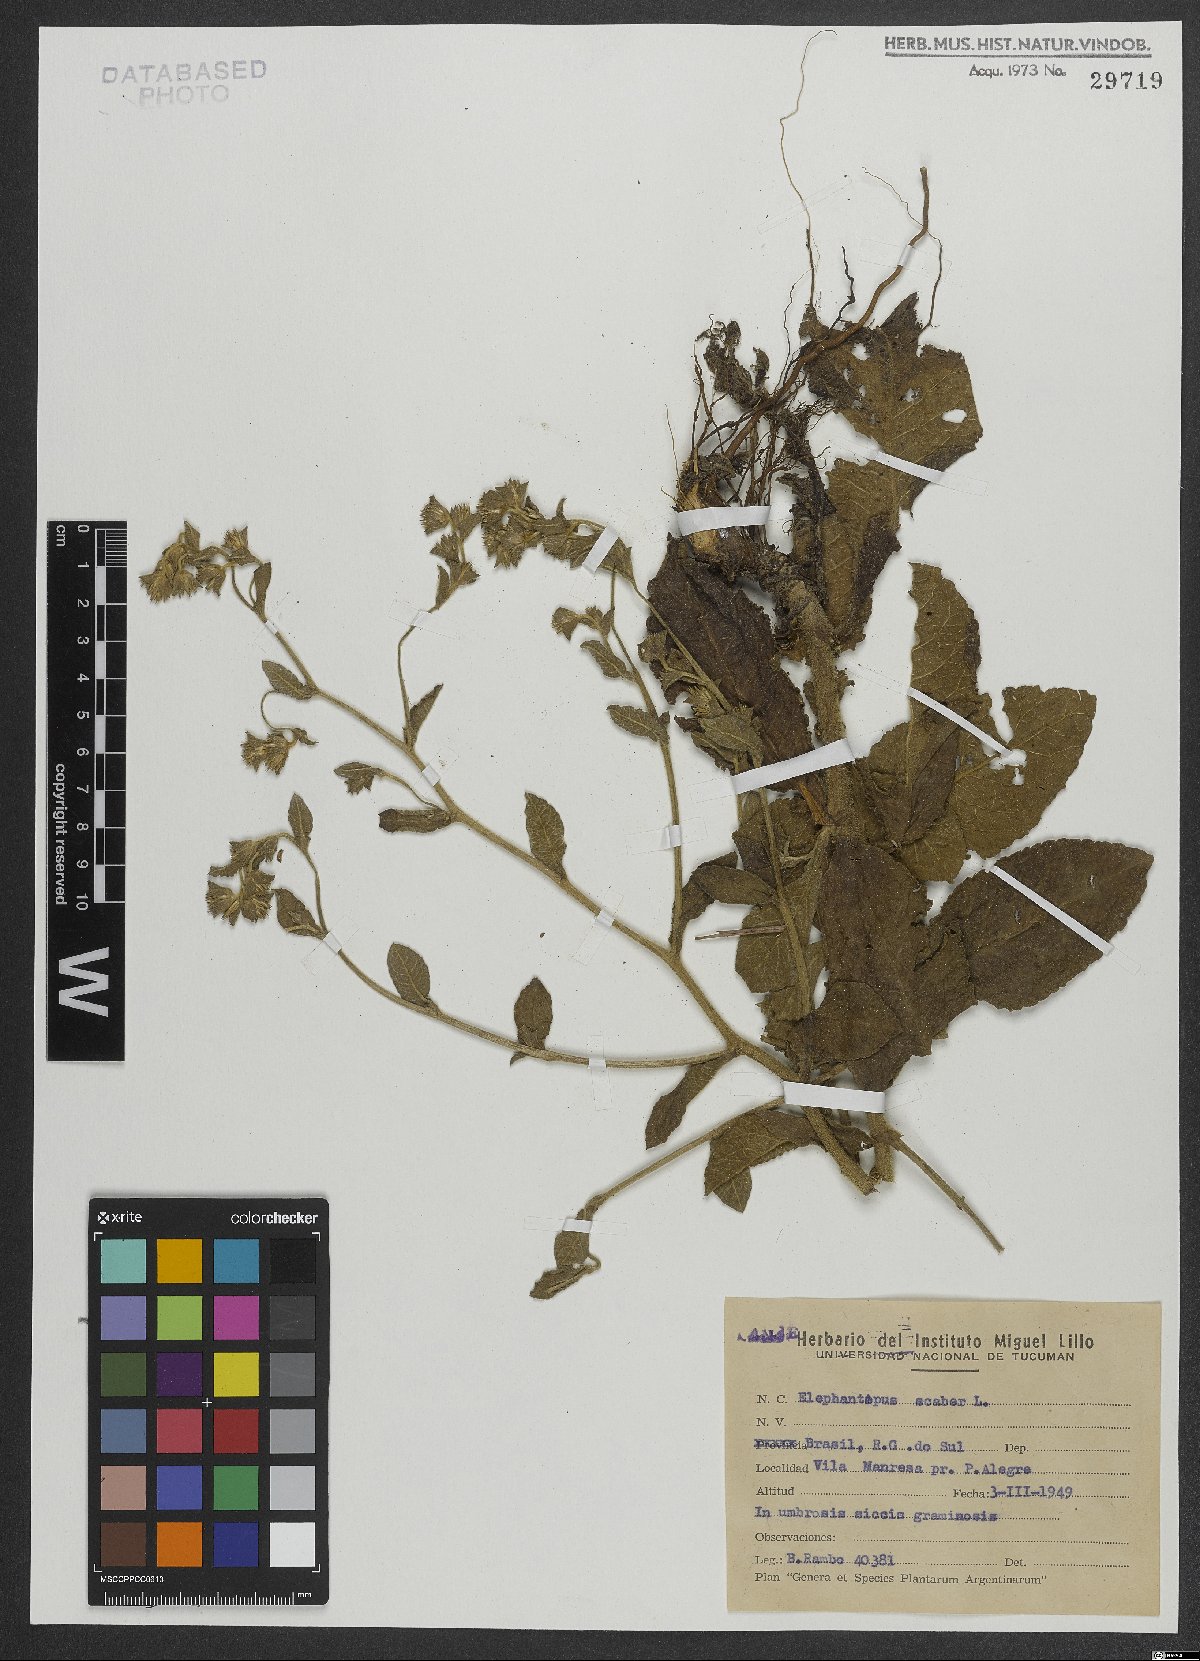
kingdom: Plantae
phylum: Tracheophyta
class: Magnoliopsida
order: Asterales
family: Asteraceae
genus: Elephantopus
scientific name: Elephantopus scaber
